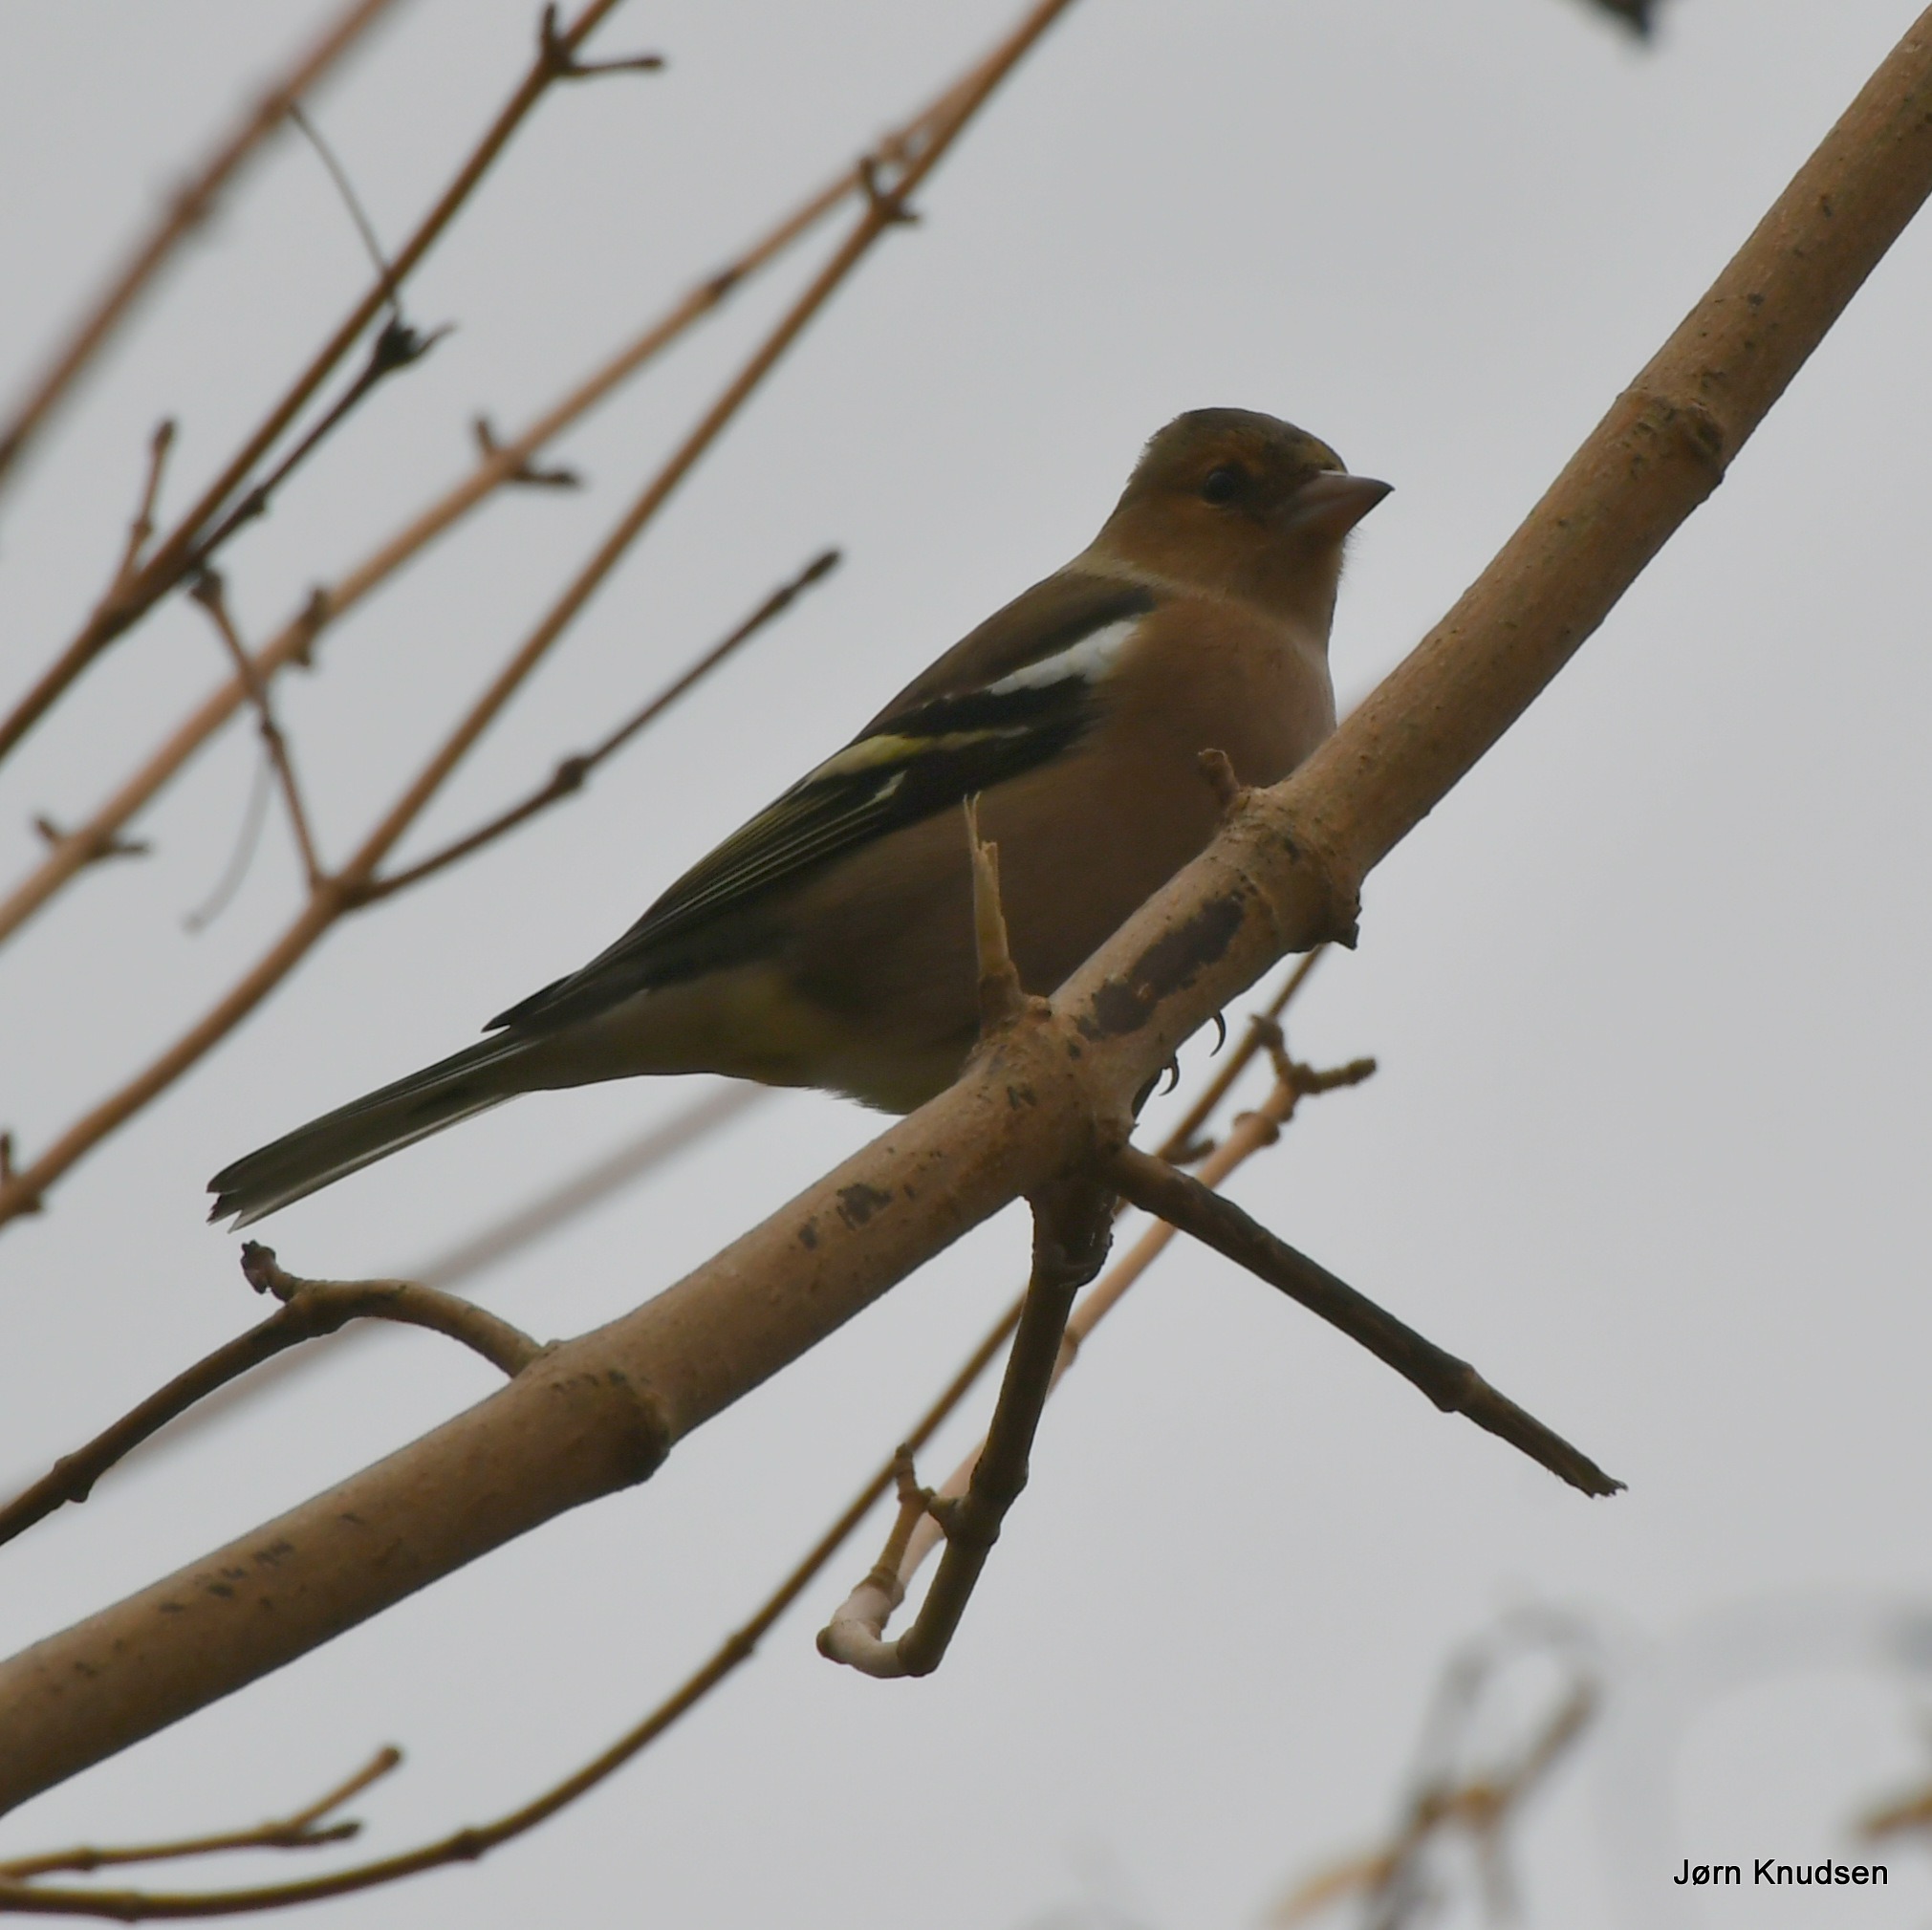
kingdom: Animalia
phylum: Chordata
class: Aves
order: Passeriformes
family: Fringillidae
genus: Fringilla
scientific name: Fringilla coelebs
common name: Bogfinke
